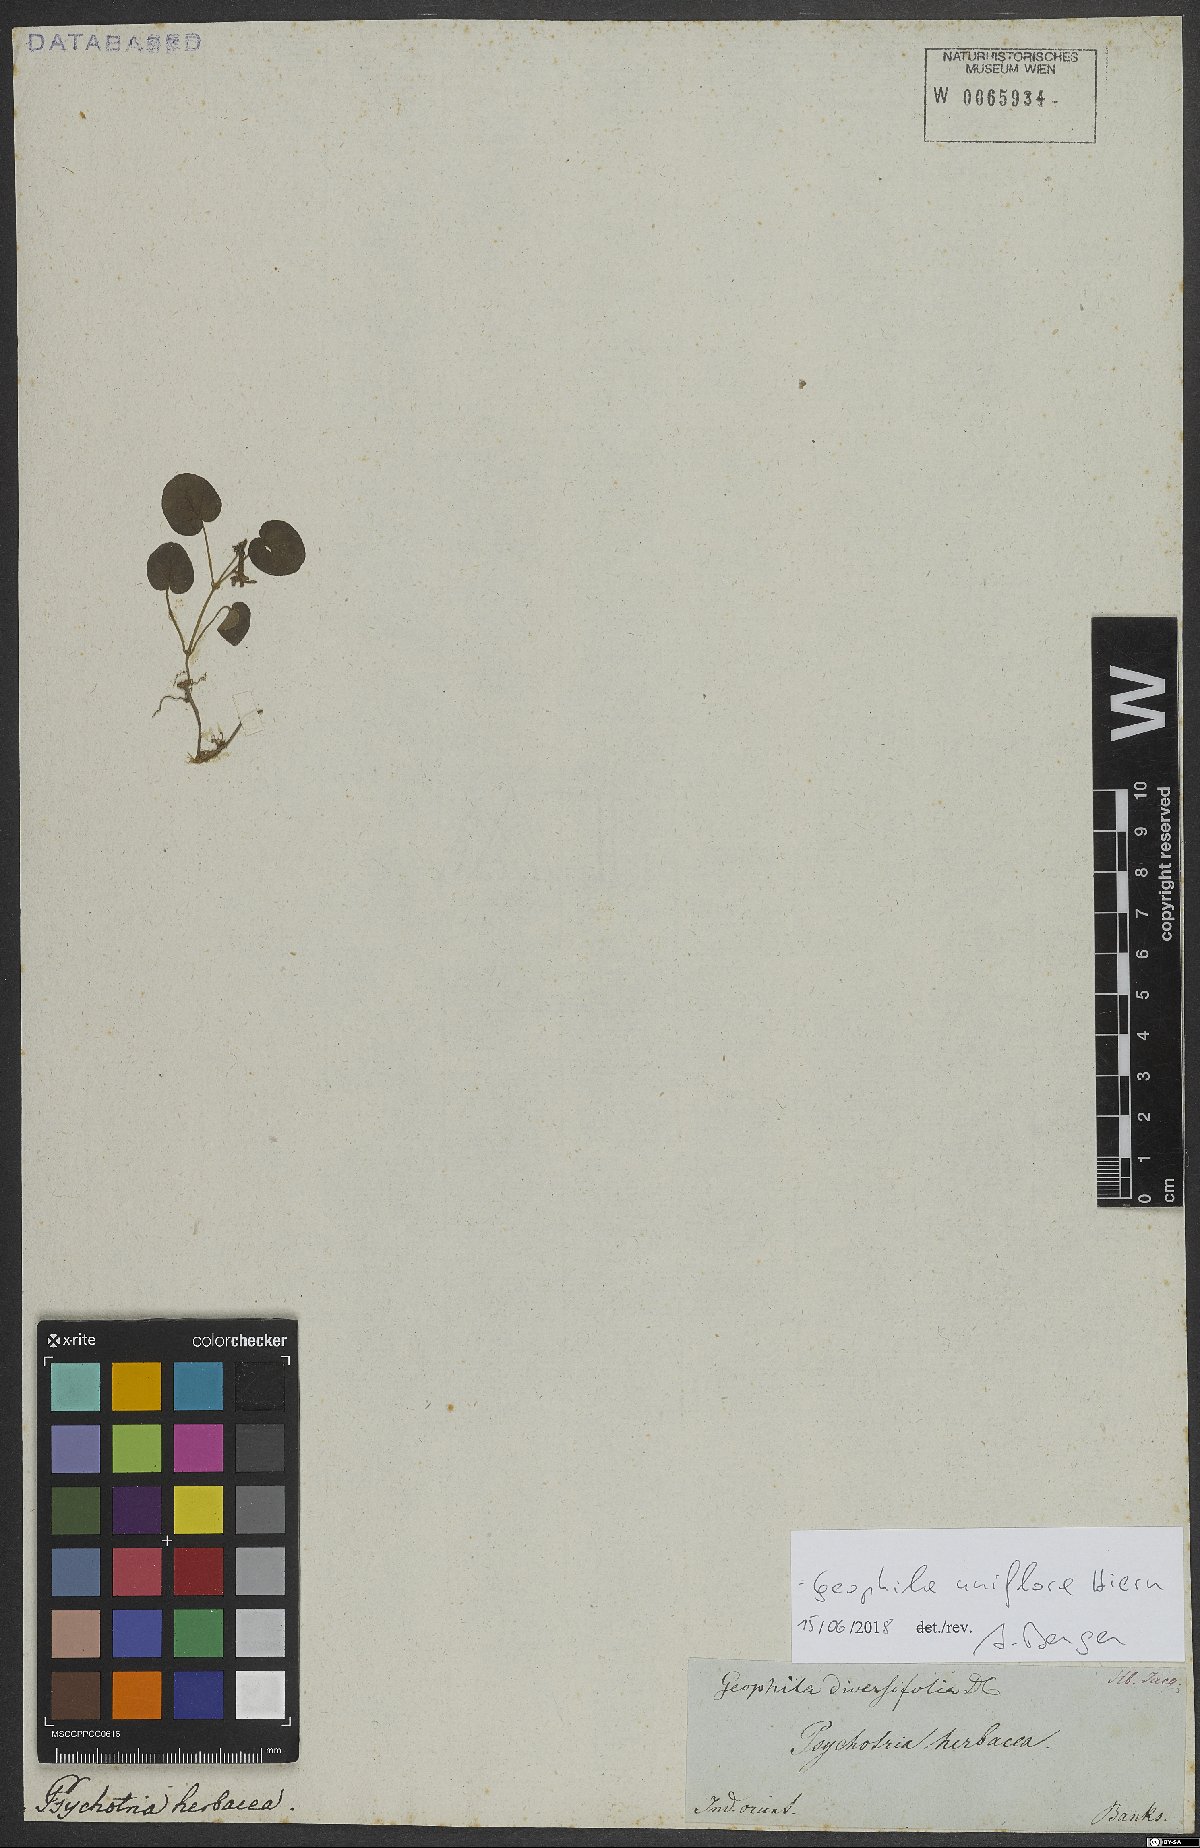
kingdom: Plantae
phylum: Tracheophyta
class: Magnoliopsida
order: Gentianales
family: Rubiaceae
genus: Geophila
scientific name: Geophila herbacea
